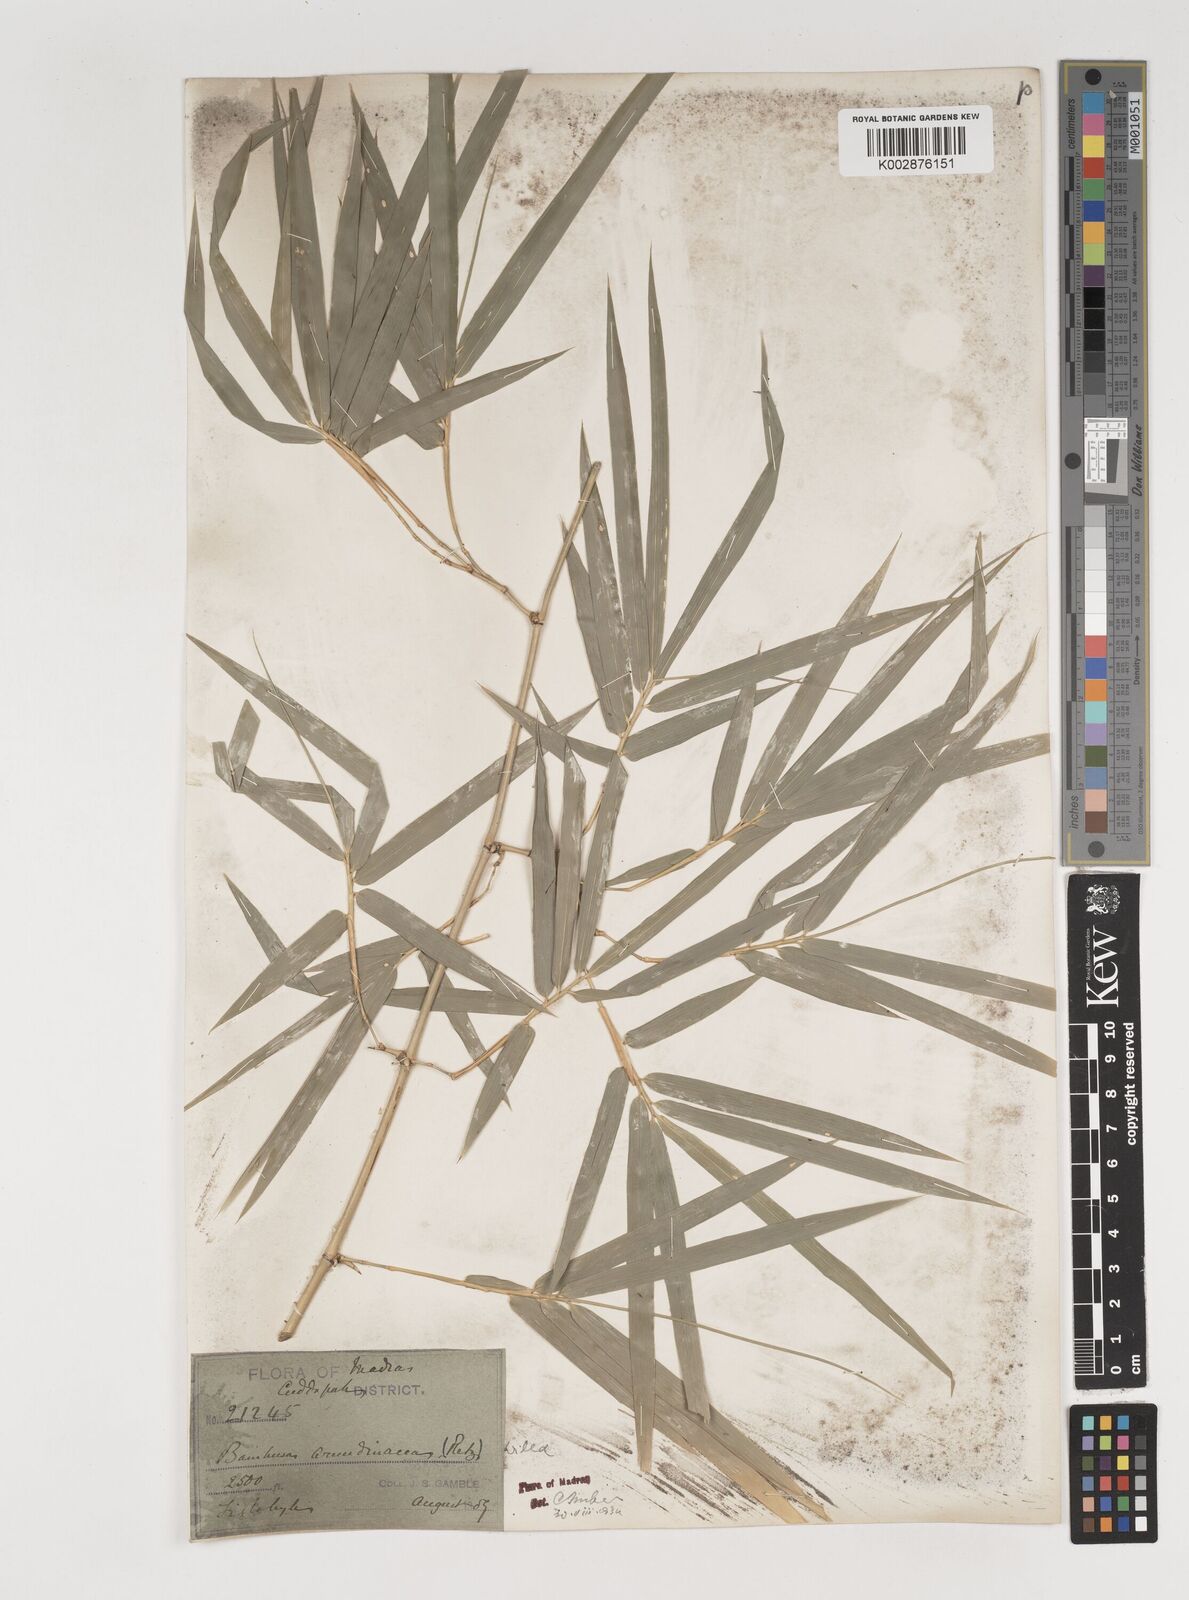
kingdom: Plantae
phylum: Tracheophyta
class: Liliopsida
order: Poales
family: Poaceae
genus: Bambusa
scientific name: Bambusa bambos
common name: Indian thorny bamboo
